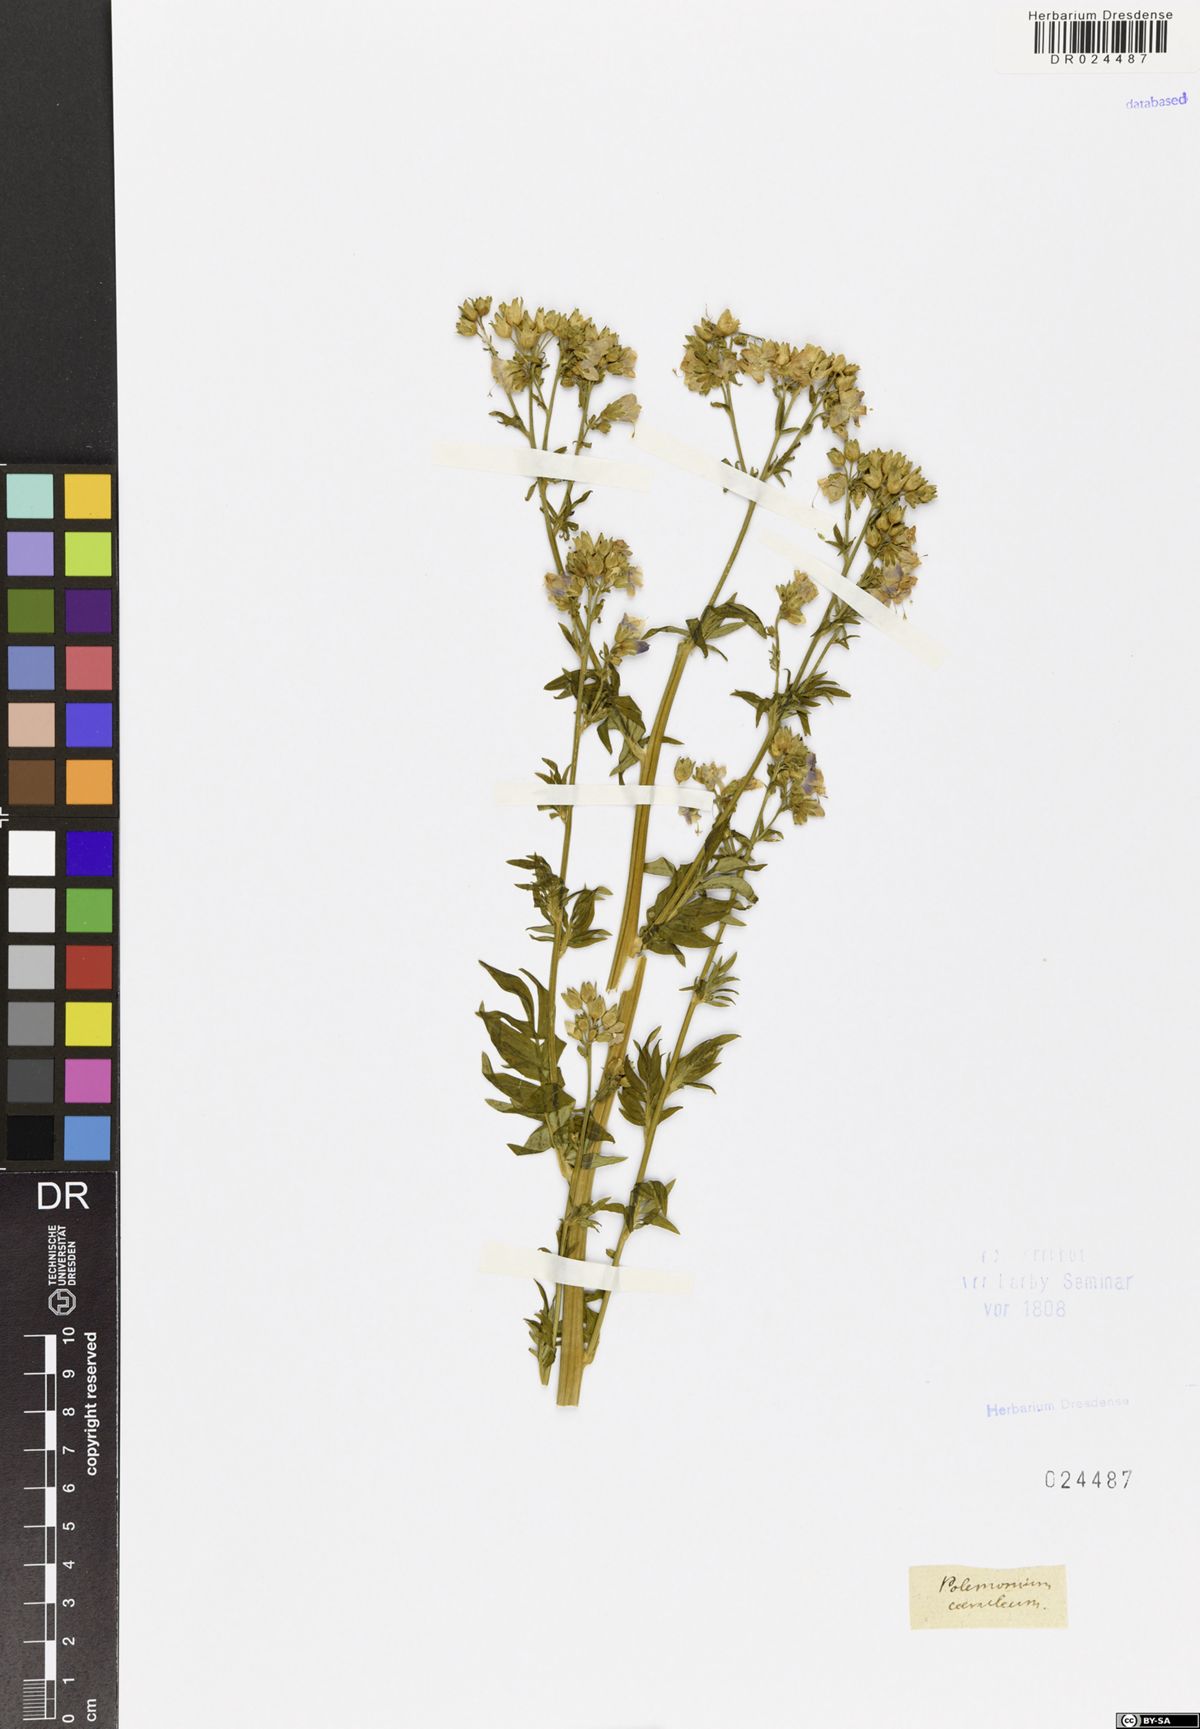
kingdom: Plantae
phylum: Tracheophyta
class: Magnoliopsida
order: Ericales
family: Polemoniaceae
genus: Polemonium
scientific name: Polemonium caeruleum
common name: Jacob's-ladder
